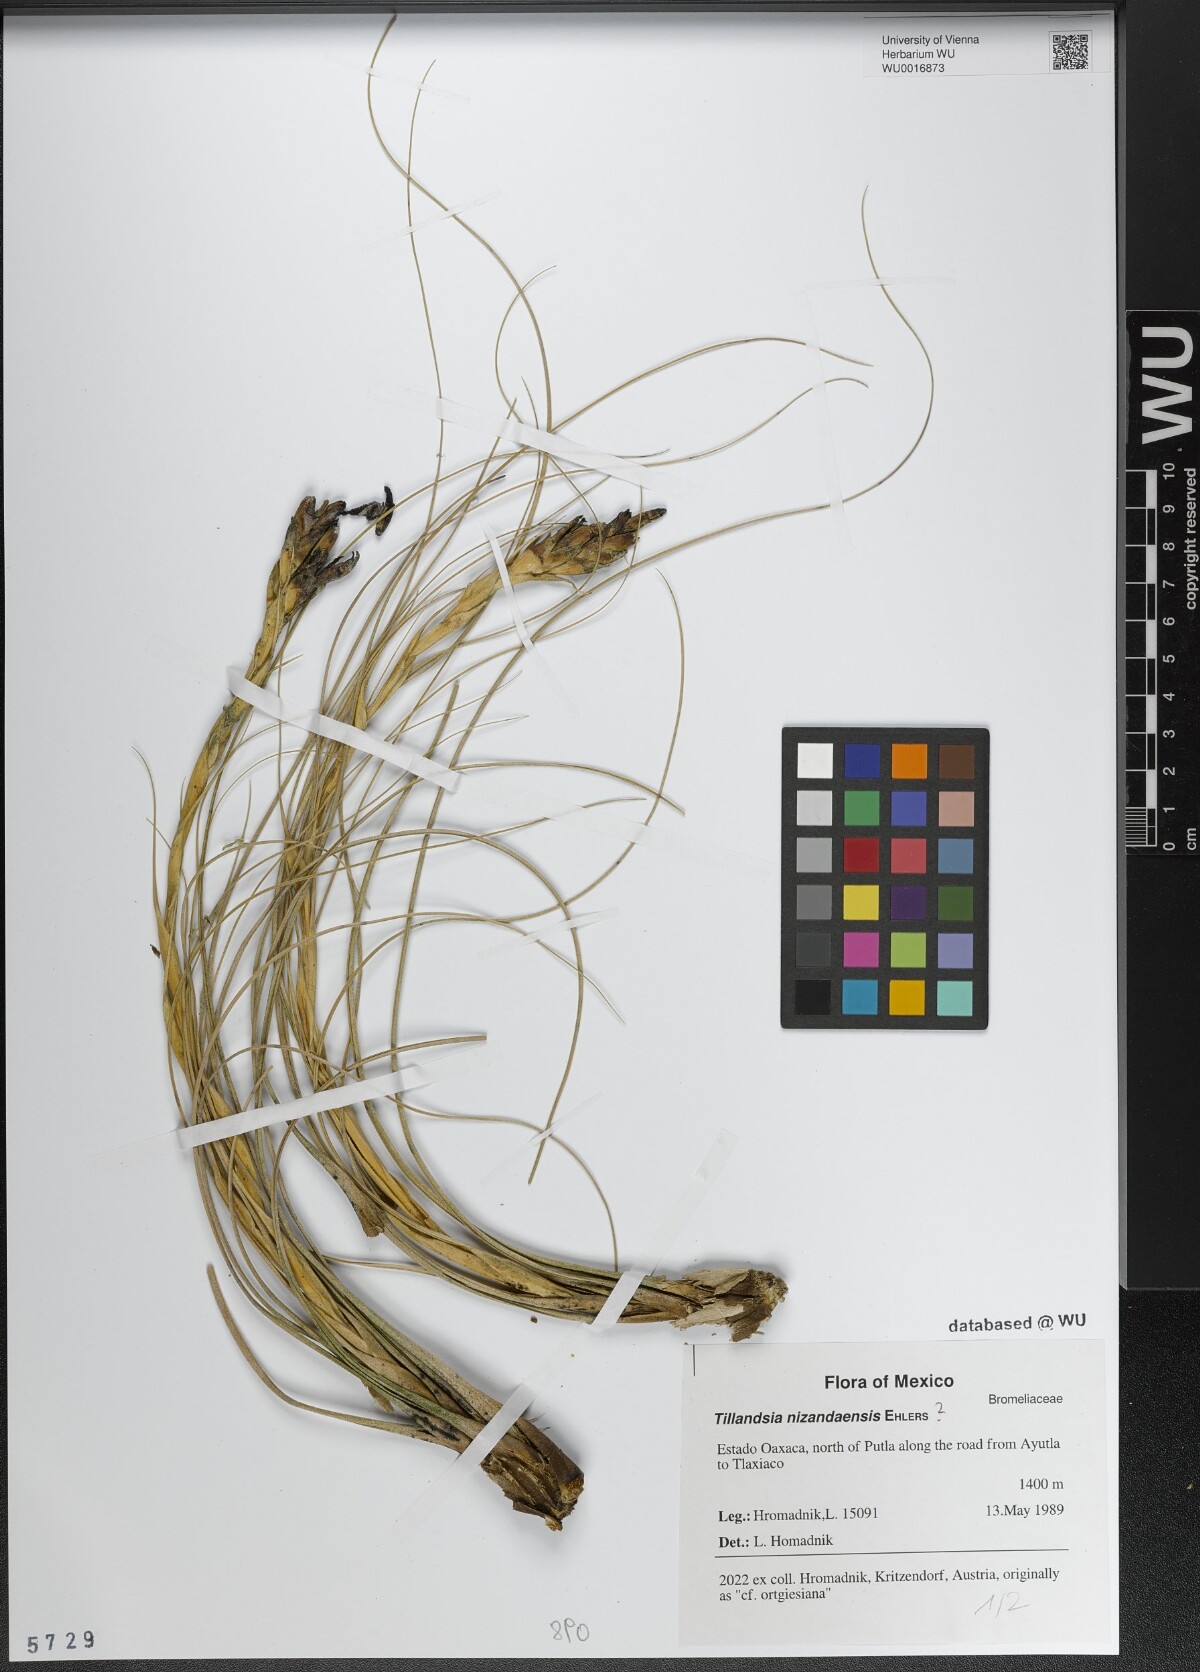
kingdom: Plantae
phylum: Tracheophyta
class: Liliopsida
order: Poales
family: Bromeliaceae
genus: Tillandsia
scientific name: Tillandsia nizandaensis
